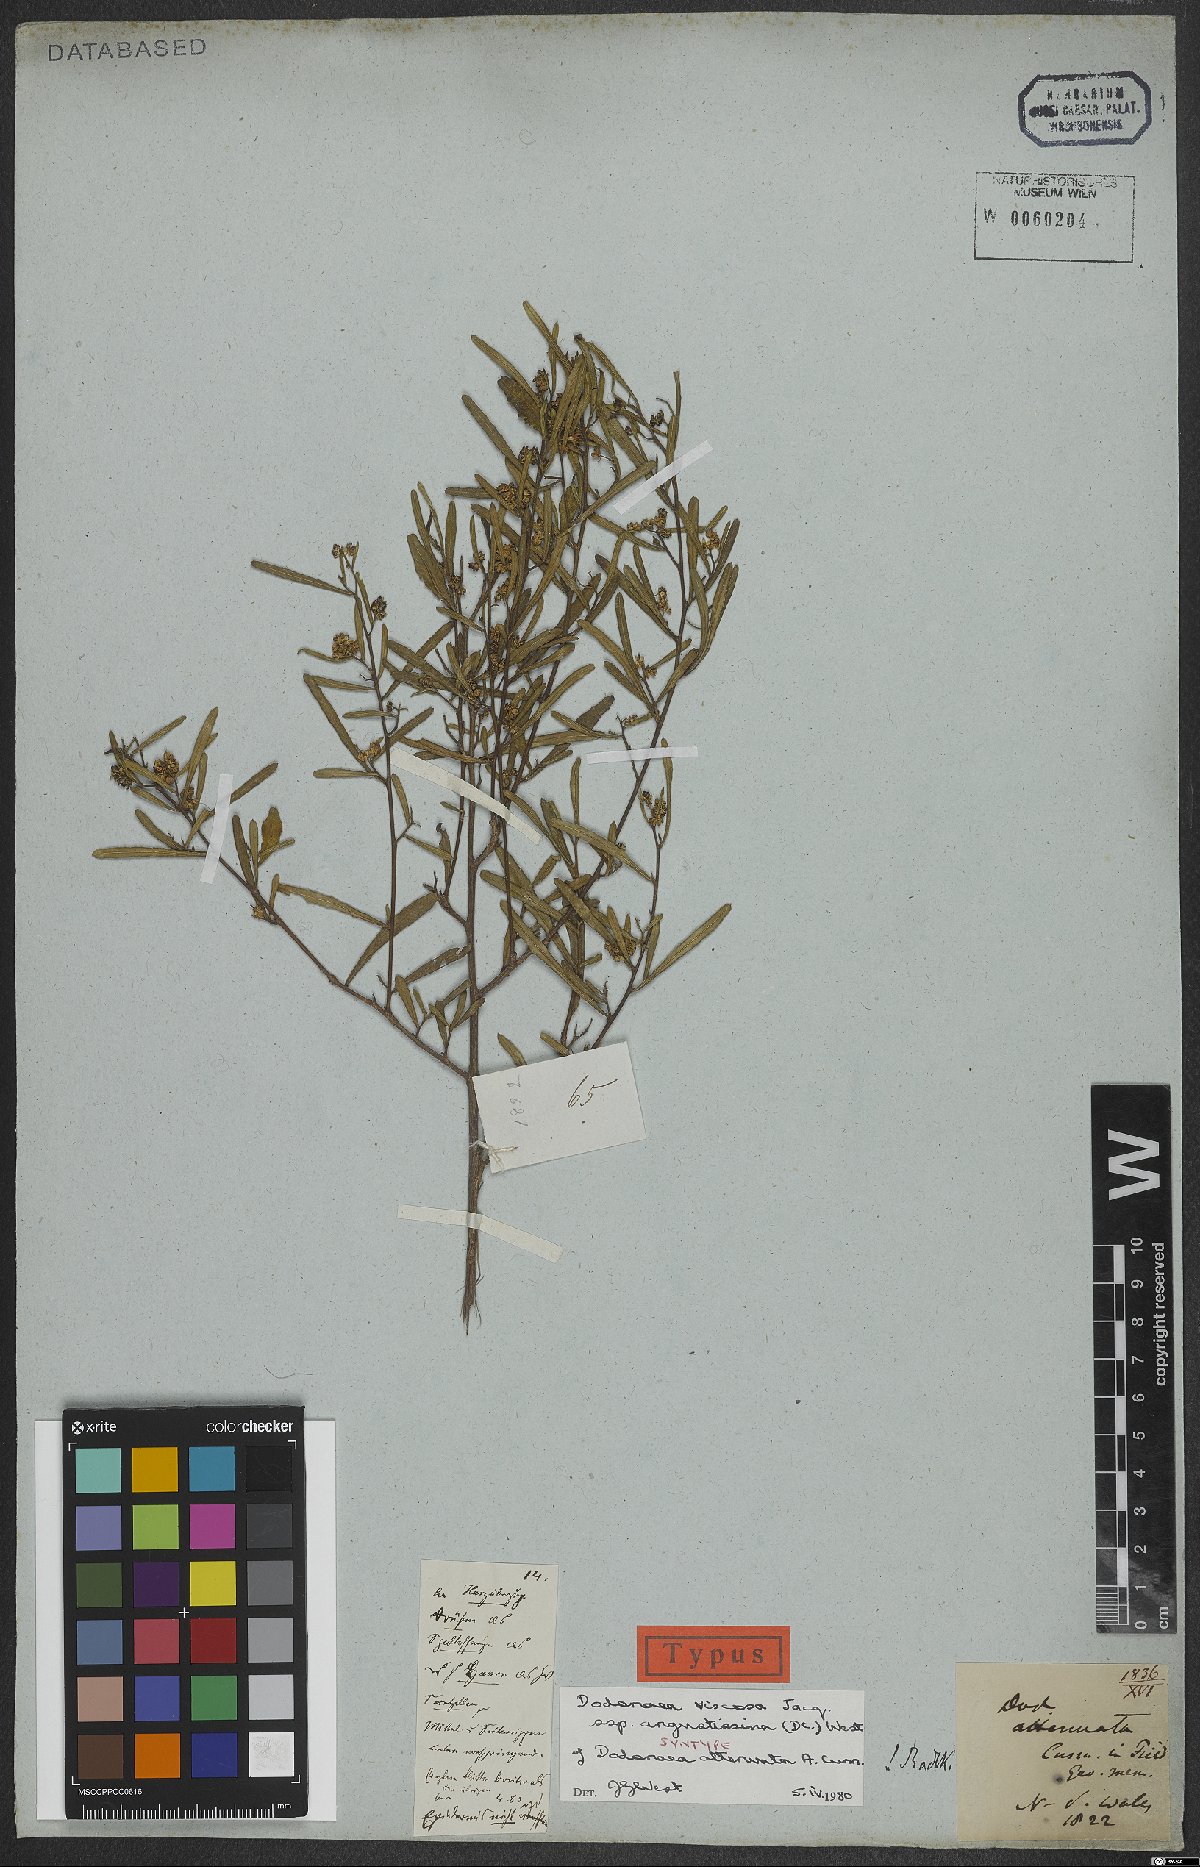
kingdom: Plantae
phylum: Tracheophyta
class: Magnoliopsida
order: Sapindales
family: Sapindaceae
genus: Dodonaea
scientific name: Dodonaea viscosa
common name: Hopbush
